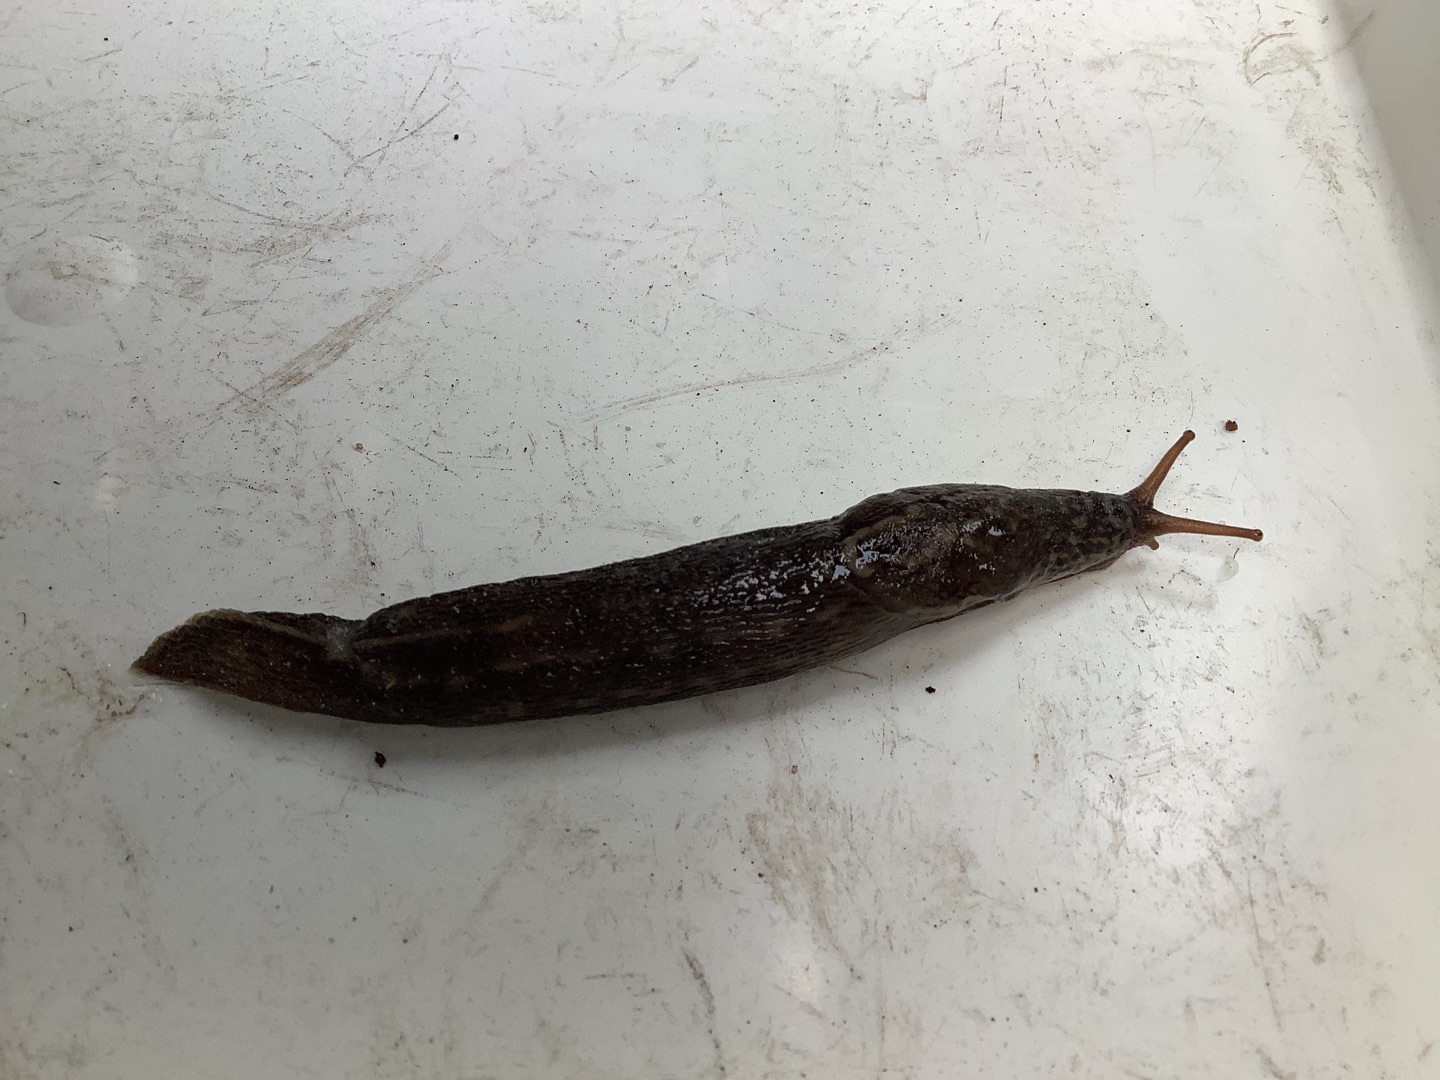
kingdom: Animalia
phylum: Mollusca
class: Gastropoda
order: Stylommatophora
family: Limacidae
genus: Limax
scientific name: Limax maximus
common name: Pantersnegl
